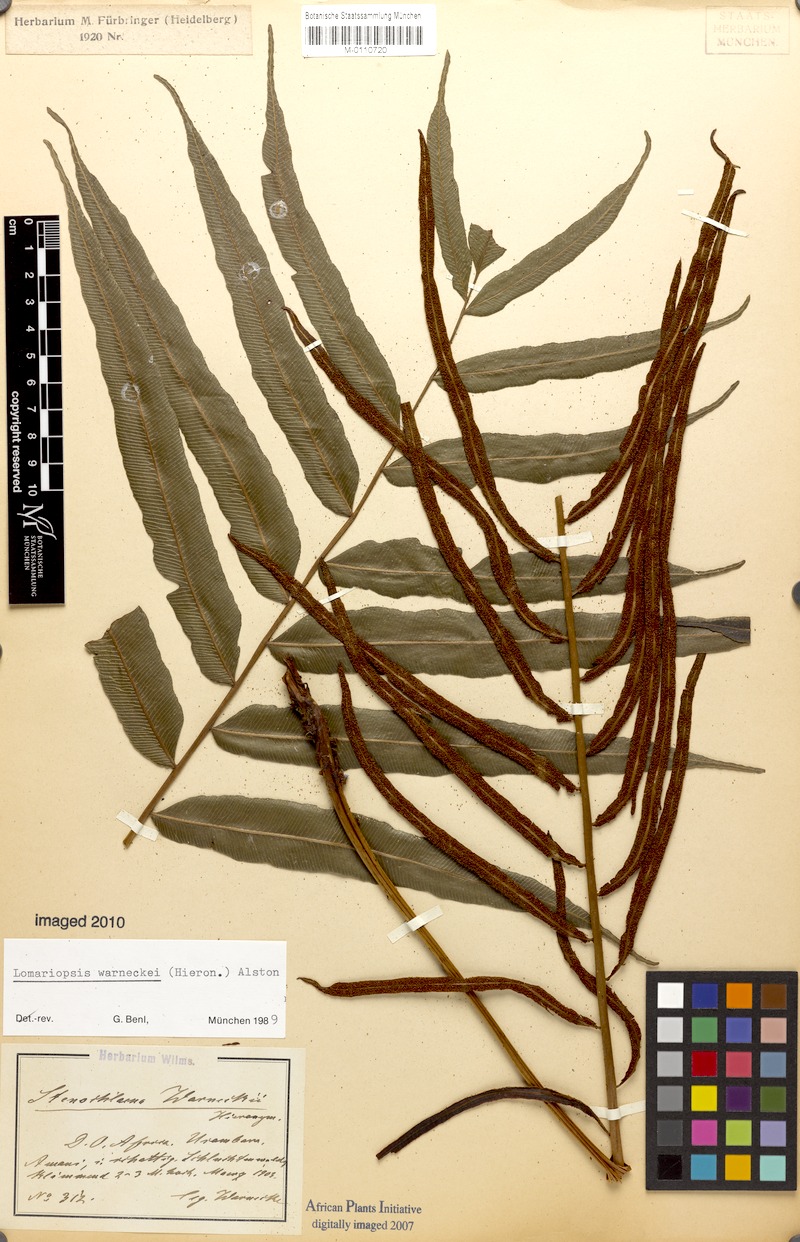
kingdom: Plantae
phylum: Tracheophyta
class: Polypodiopsida
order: Polypodiales
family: Lomariopsidaceae
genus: Lomariopsis
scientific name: Lomariopsis warneckei
